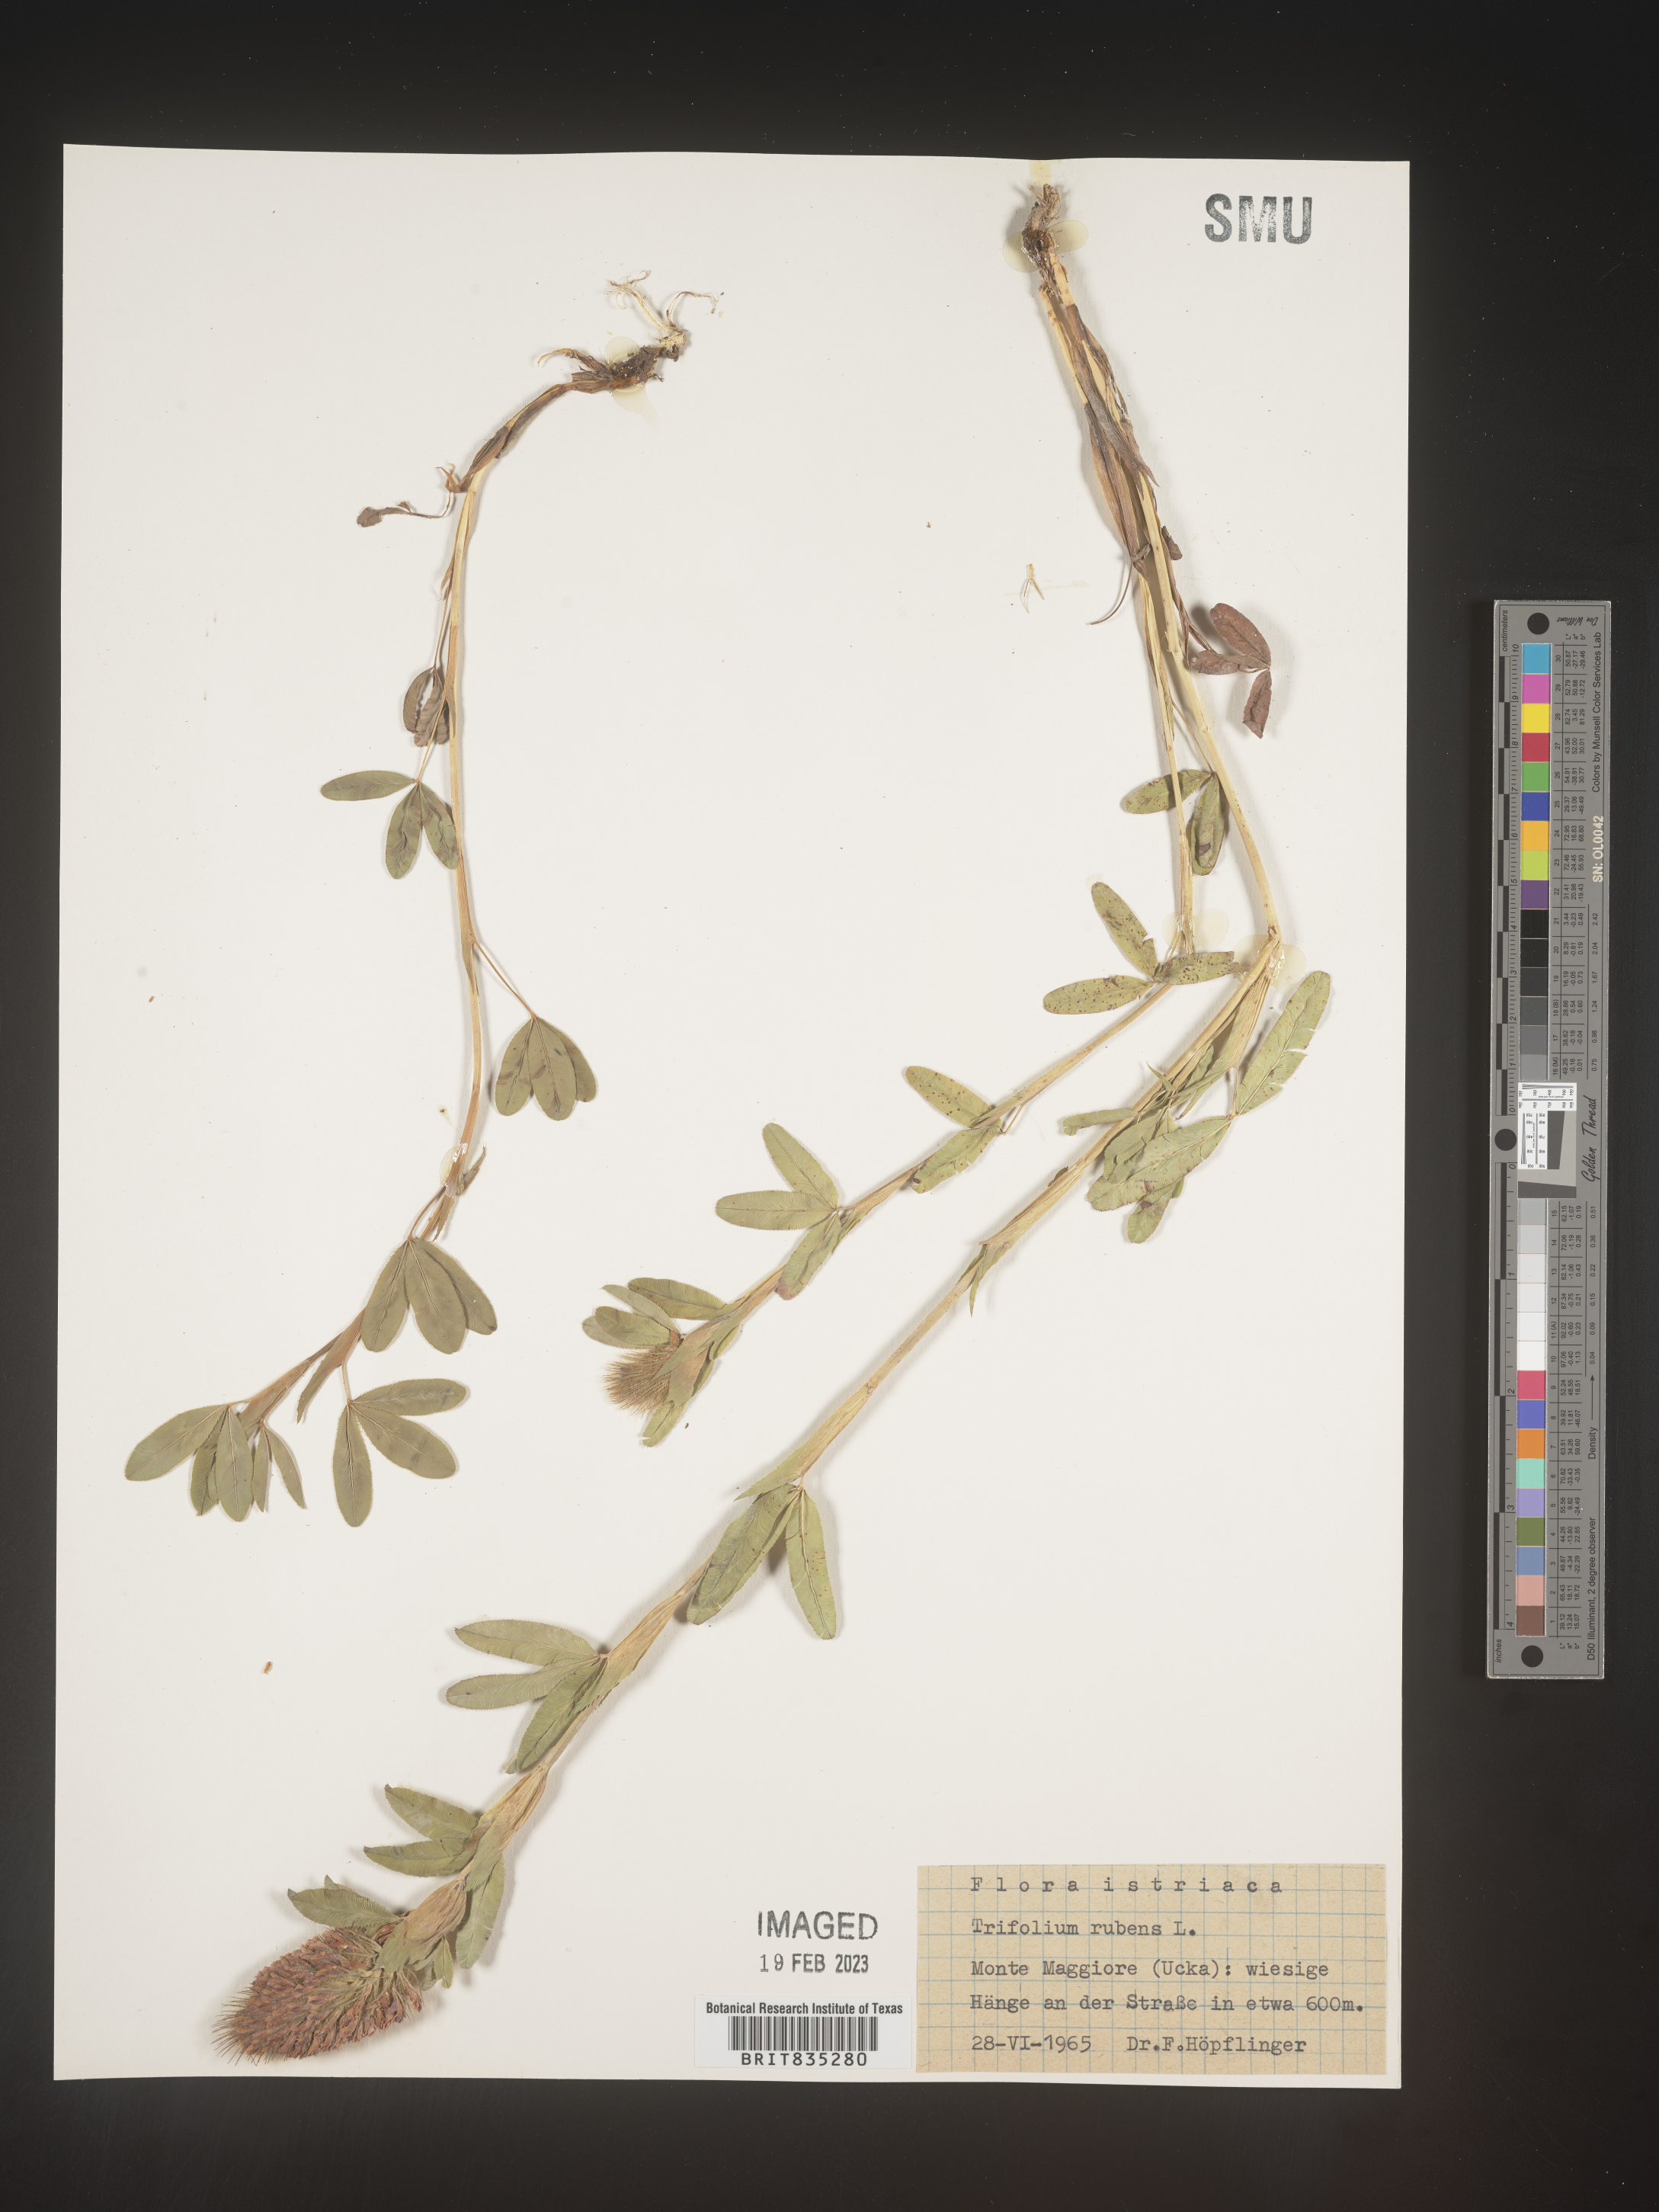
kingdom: Plantae
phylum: Tracheophyta
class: Magnoliopsida
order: Fabales
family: Fabaceae
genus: Trifolium
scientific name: Trifolium
